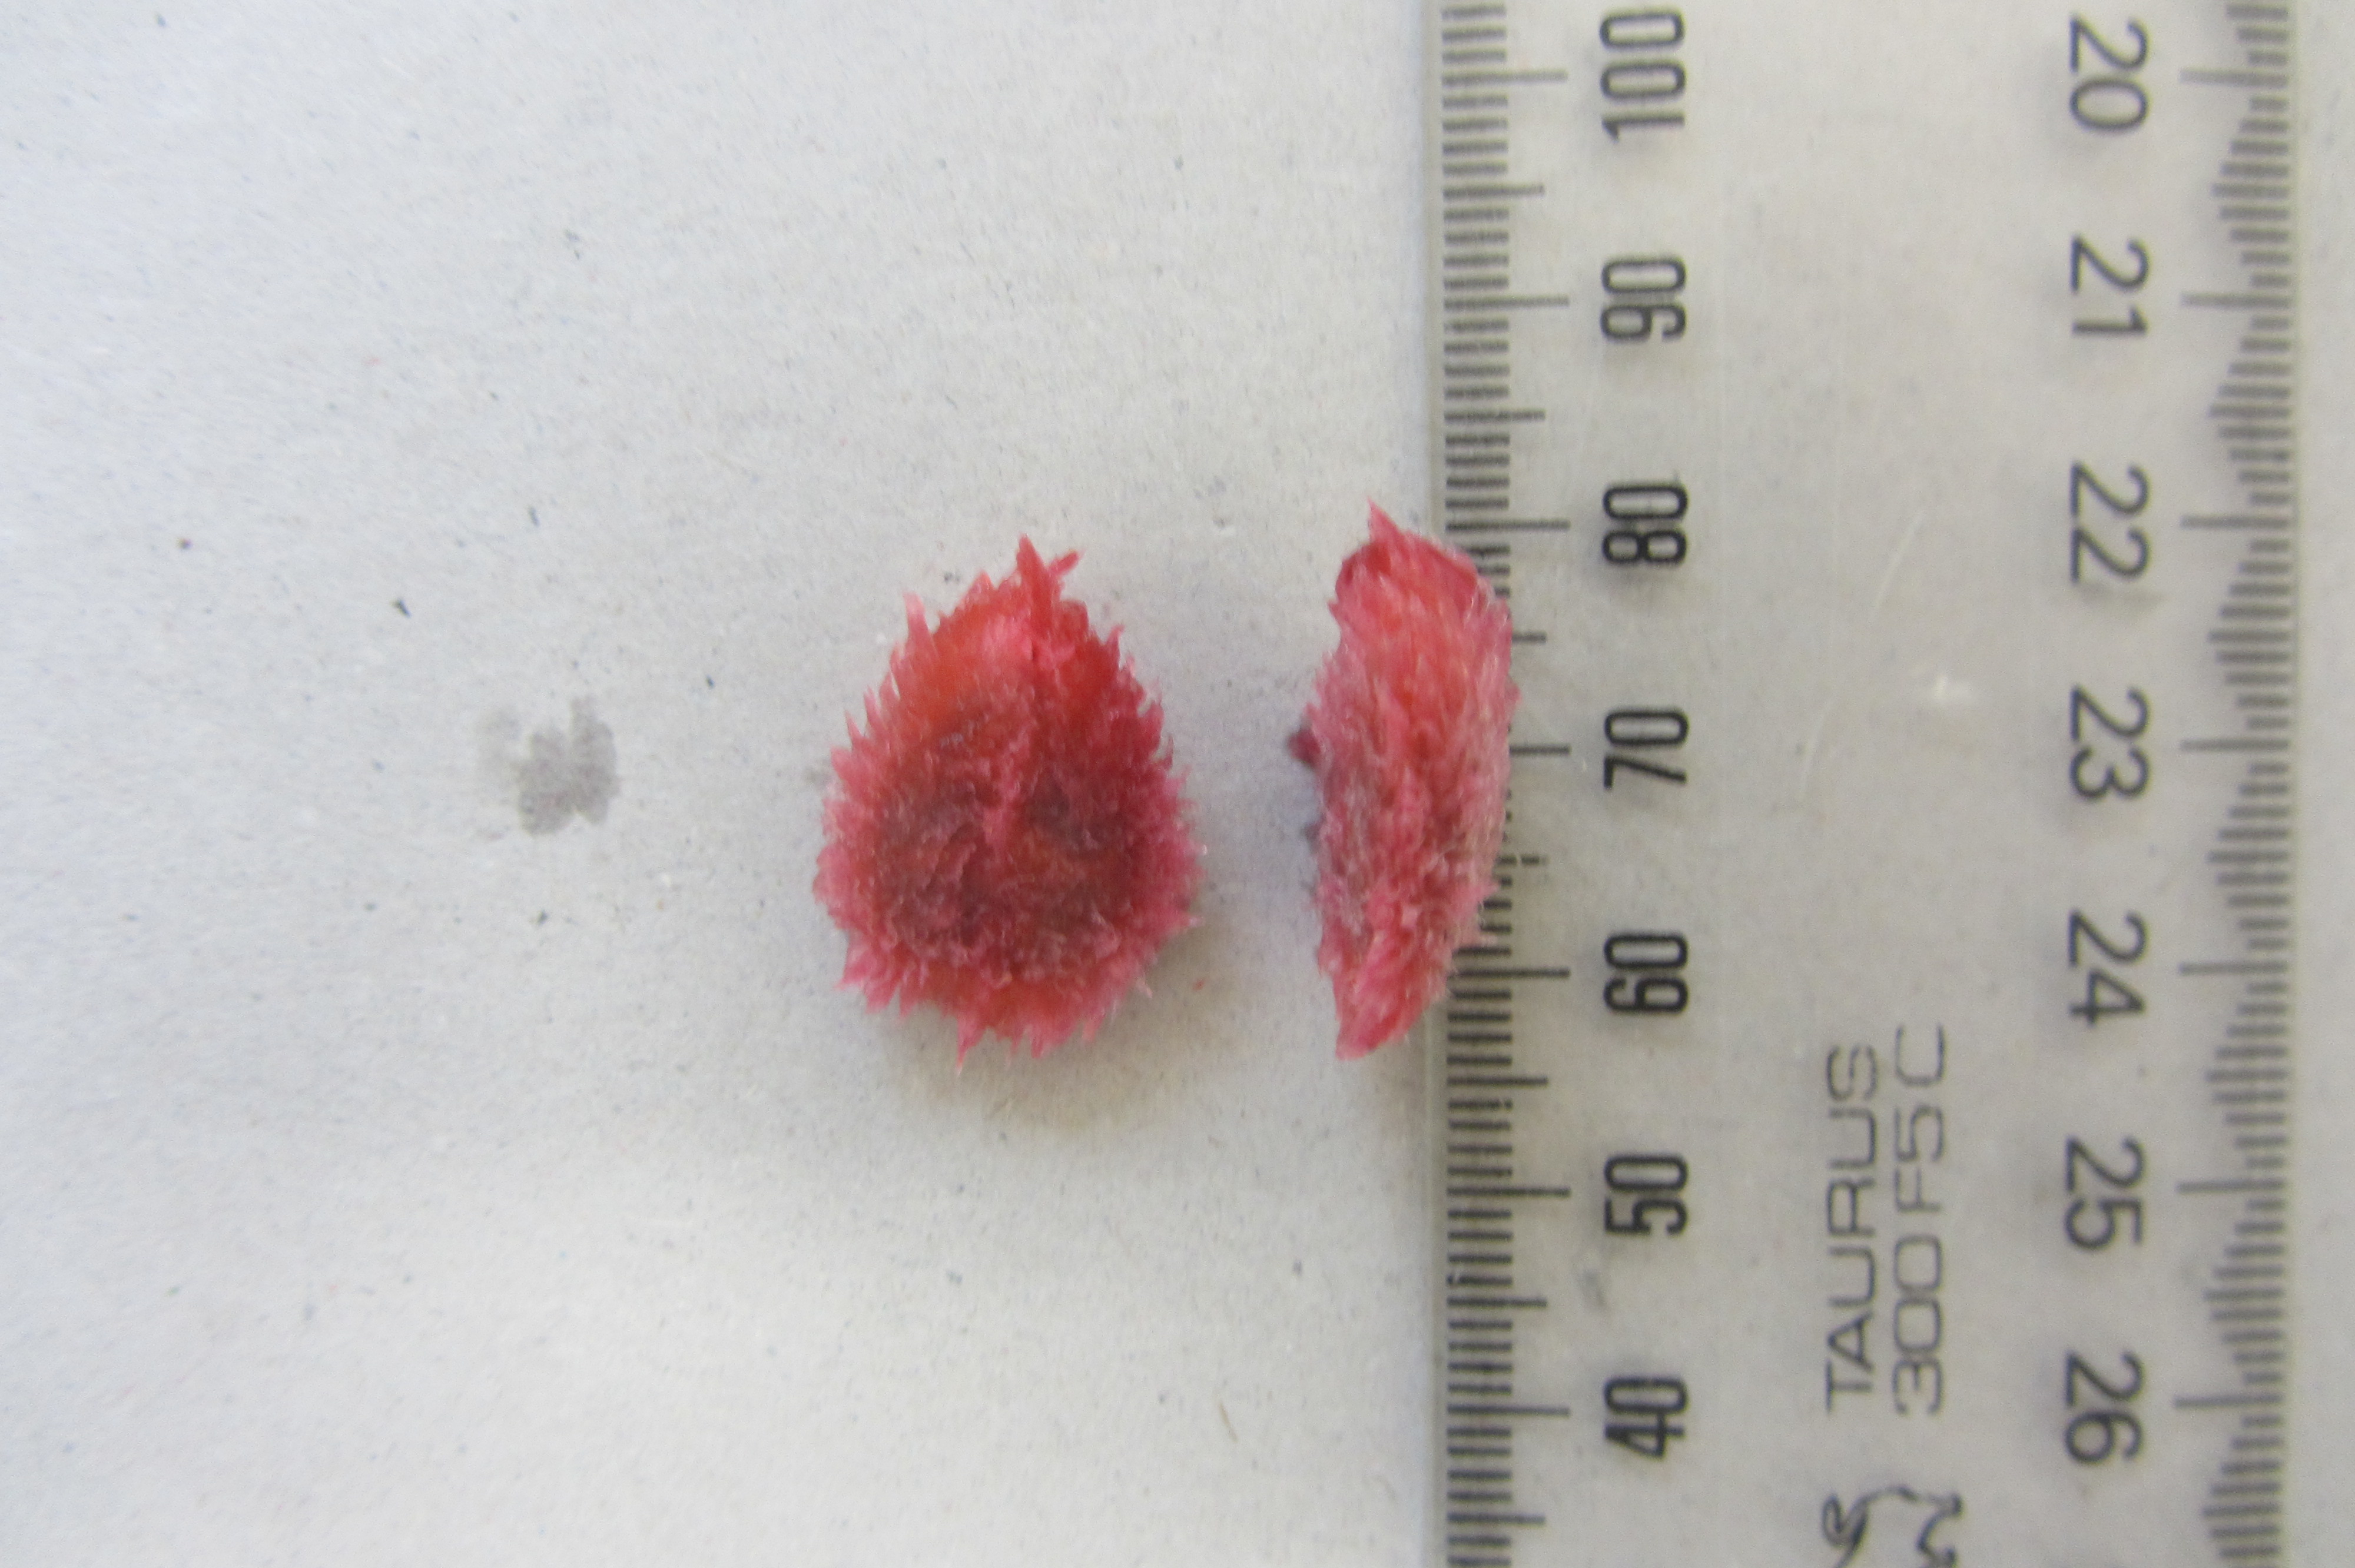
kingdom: Plantae
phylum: Tracheophyta
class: Magnoliopsida
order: Oxalidales
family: Cunoniaceae
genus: Davidsonia
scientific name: Davidsonia jerseyana
